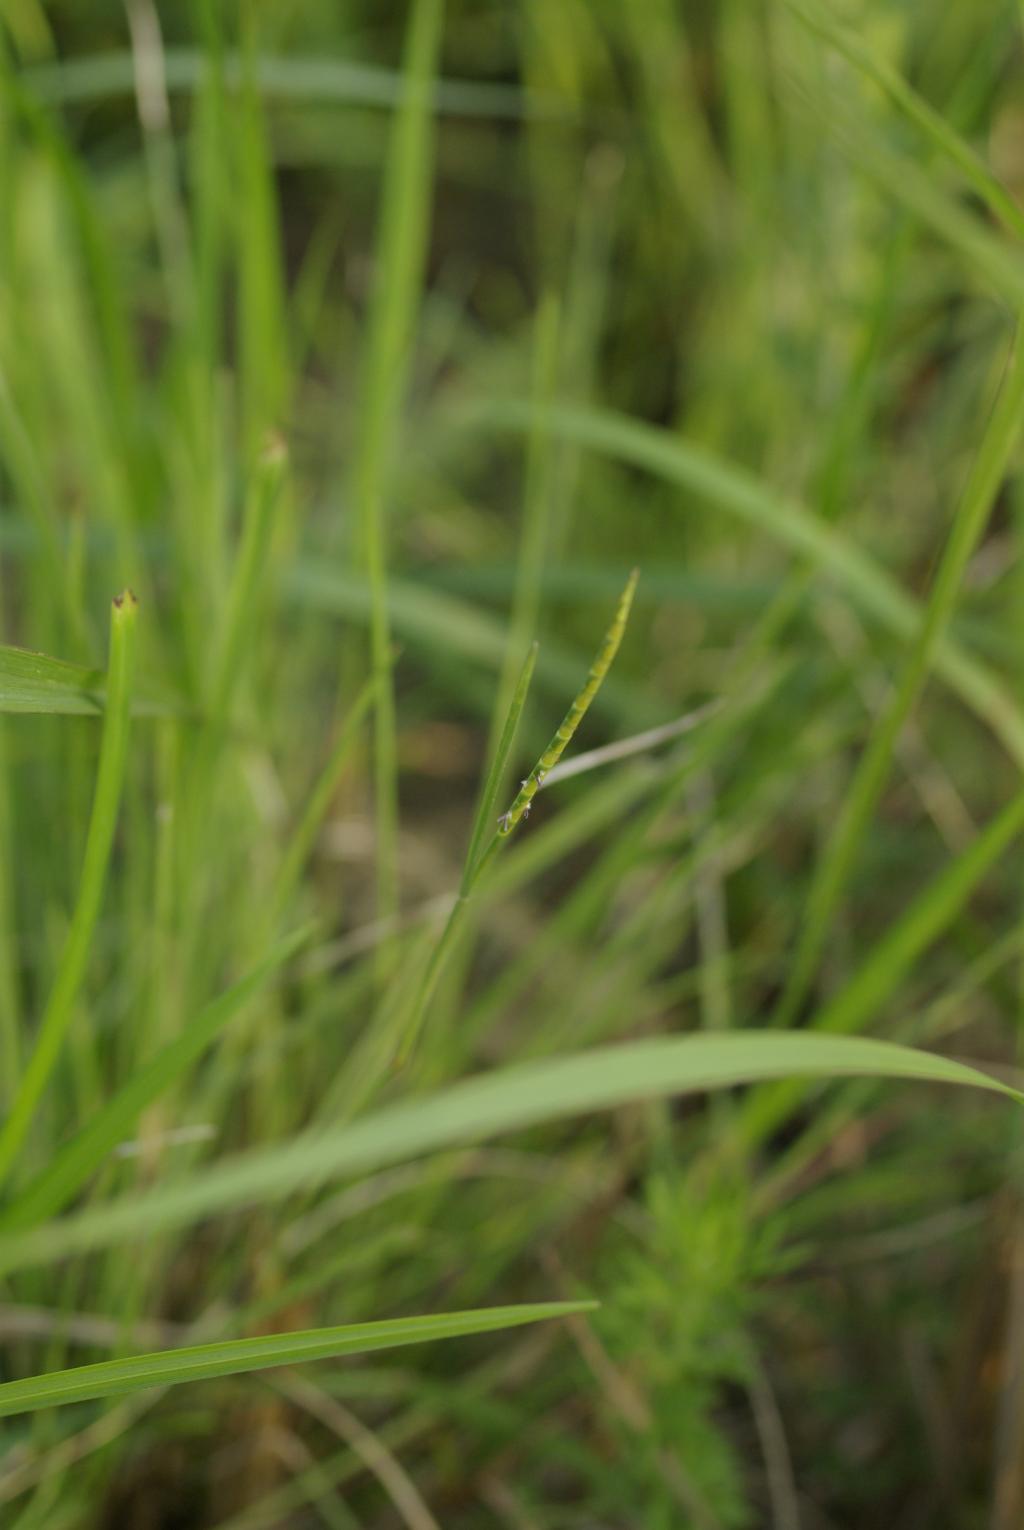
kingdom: Plantae
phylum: Tracheophyta
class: Liliopsida
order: Poales
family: Poaceae
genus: Mnesithea
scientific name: Mnesithea laevis
